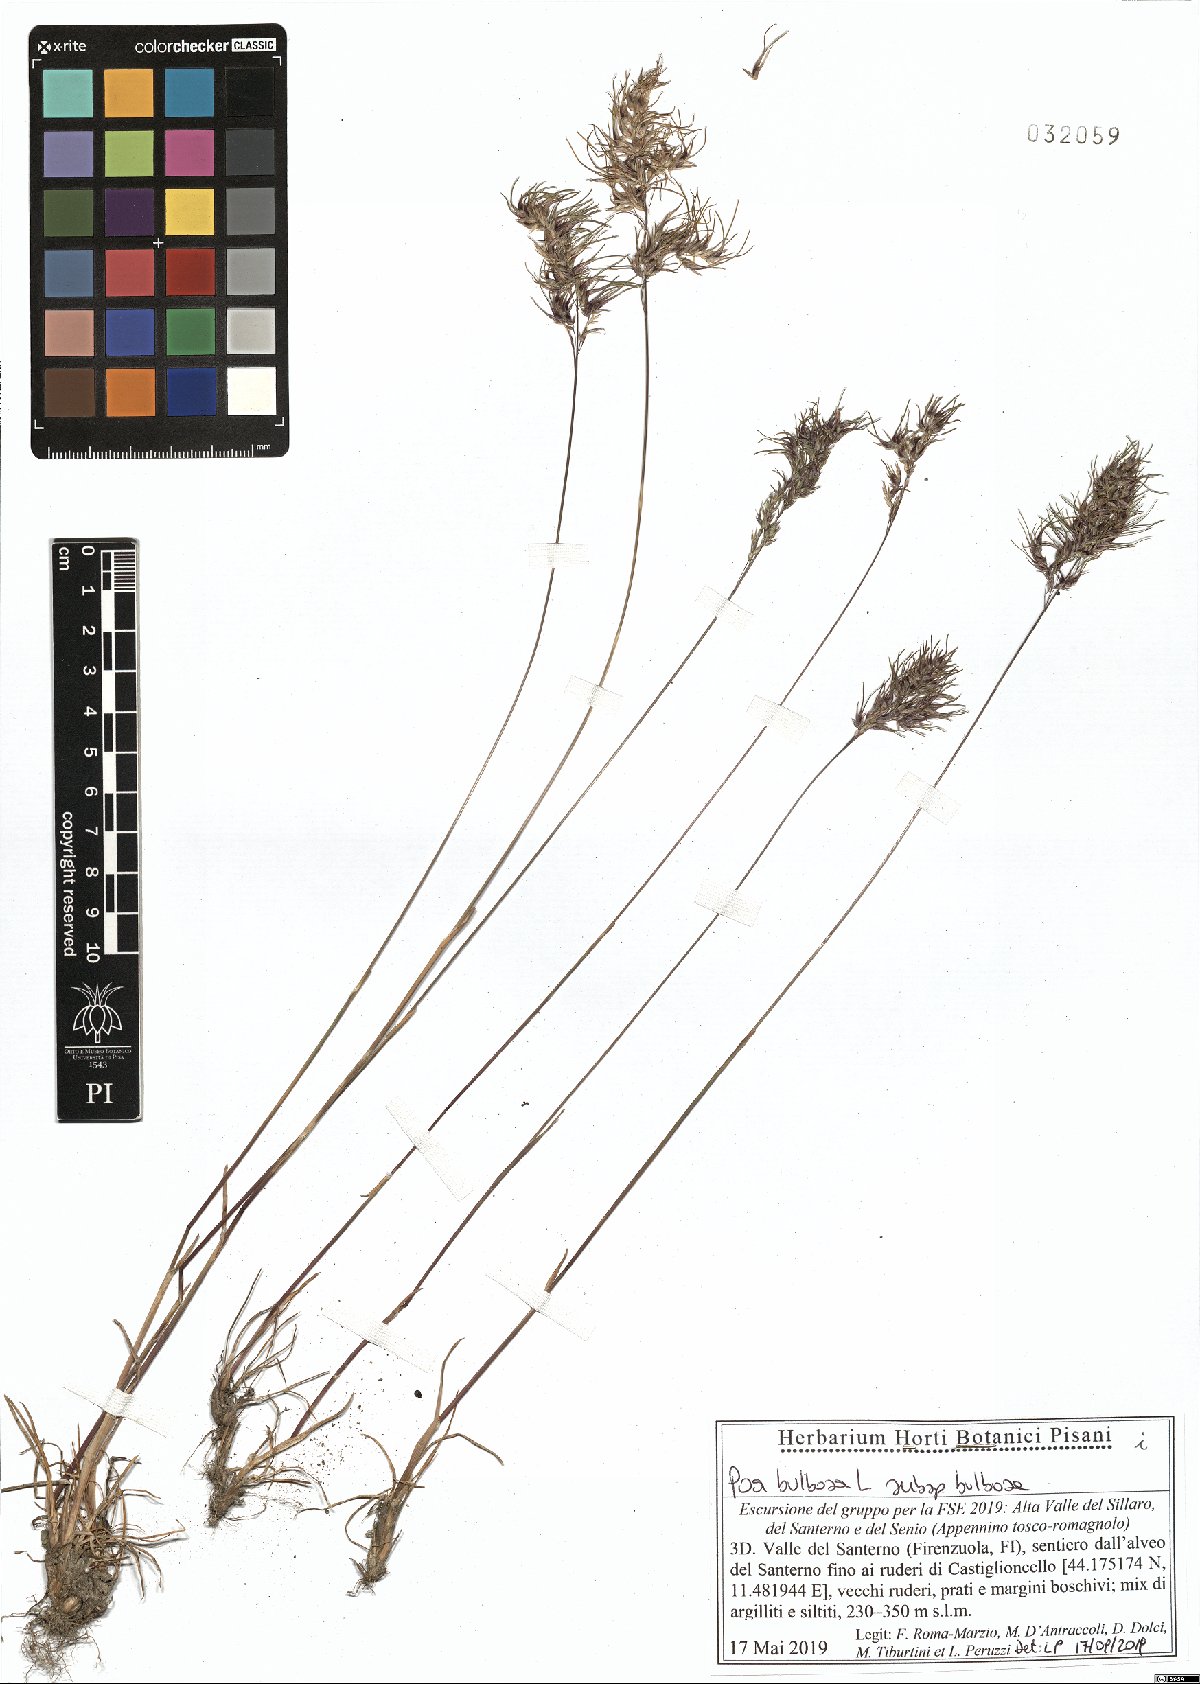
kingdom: Plantae
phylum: Tracheophyta
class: Liliopsida
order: Poales
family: Poaceae
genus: Poa
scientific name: Poa bulbosa
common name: Bulbous bluegrass
